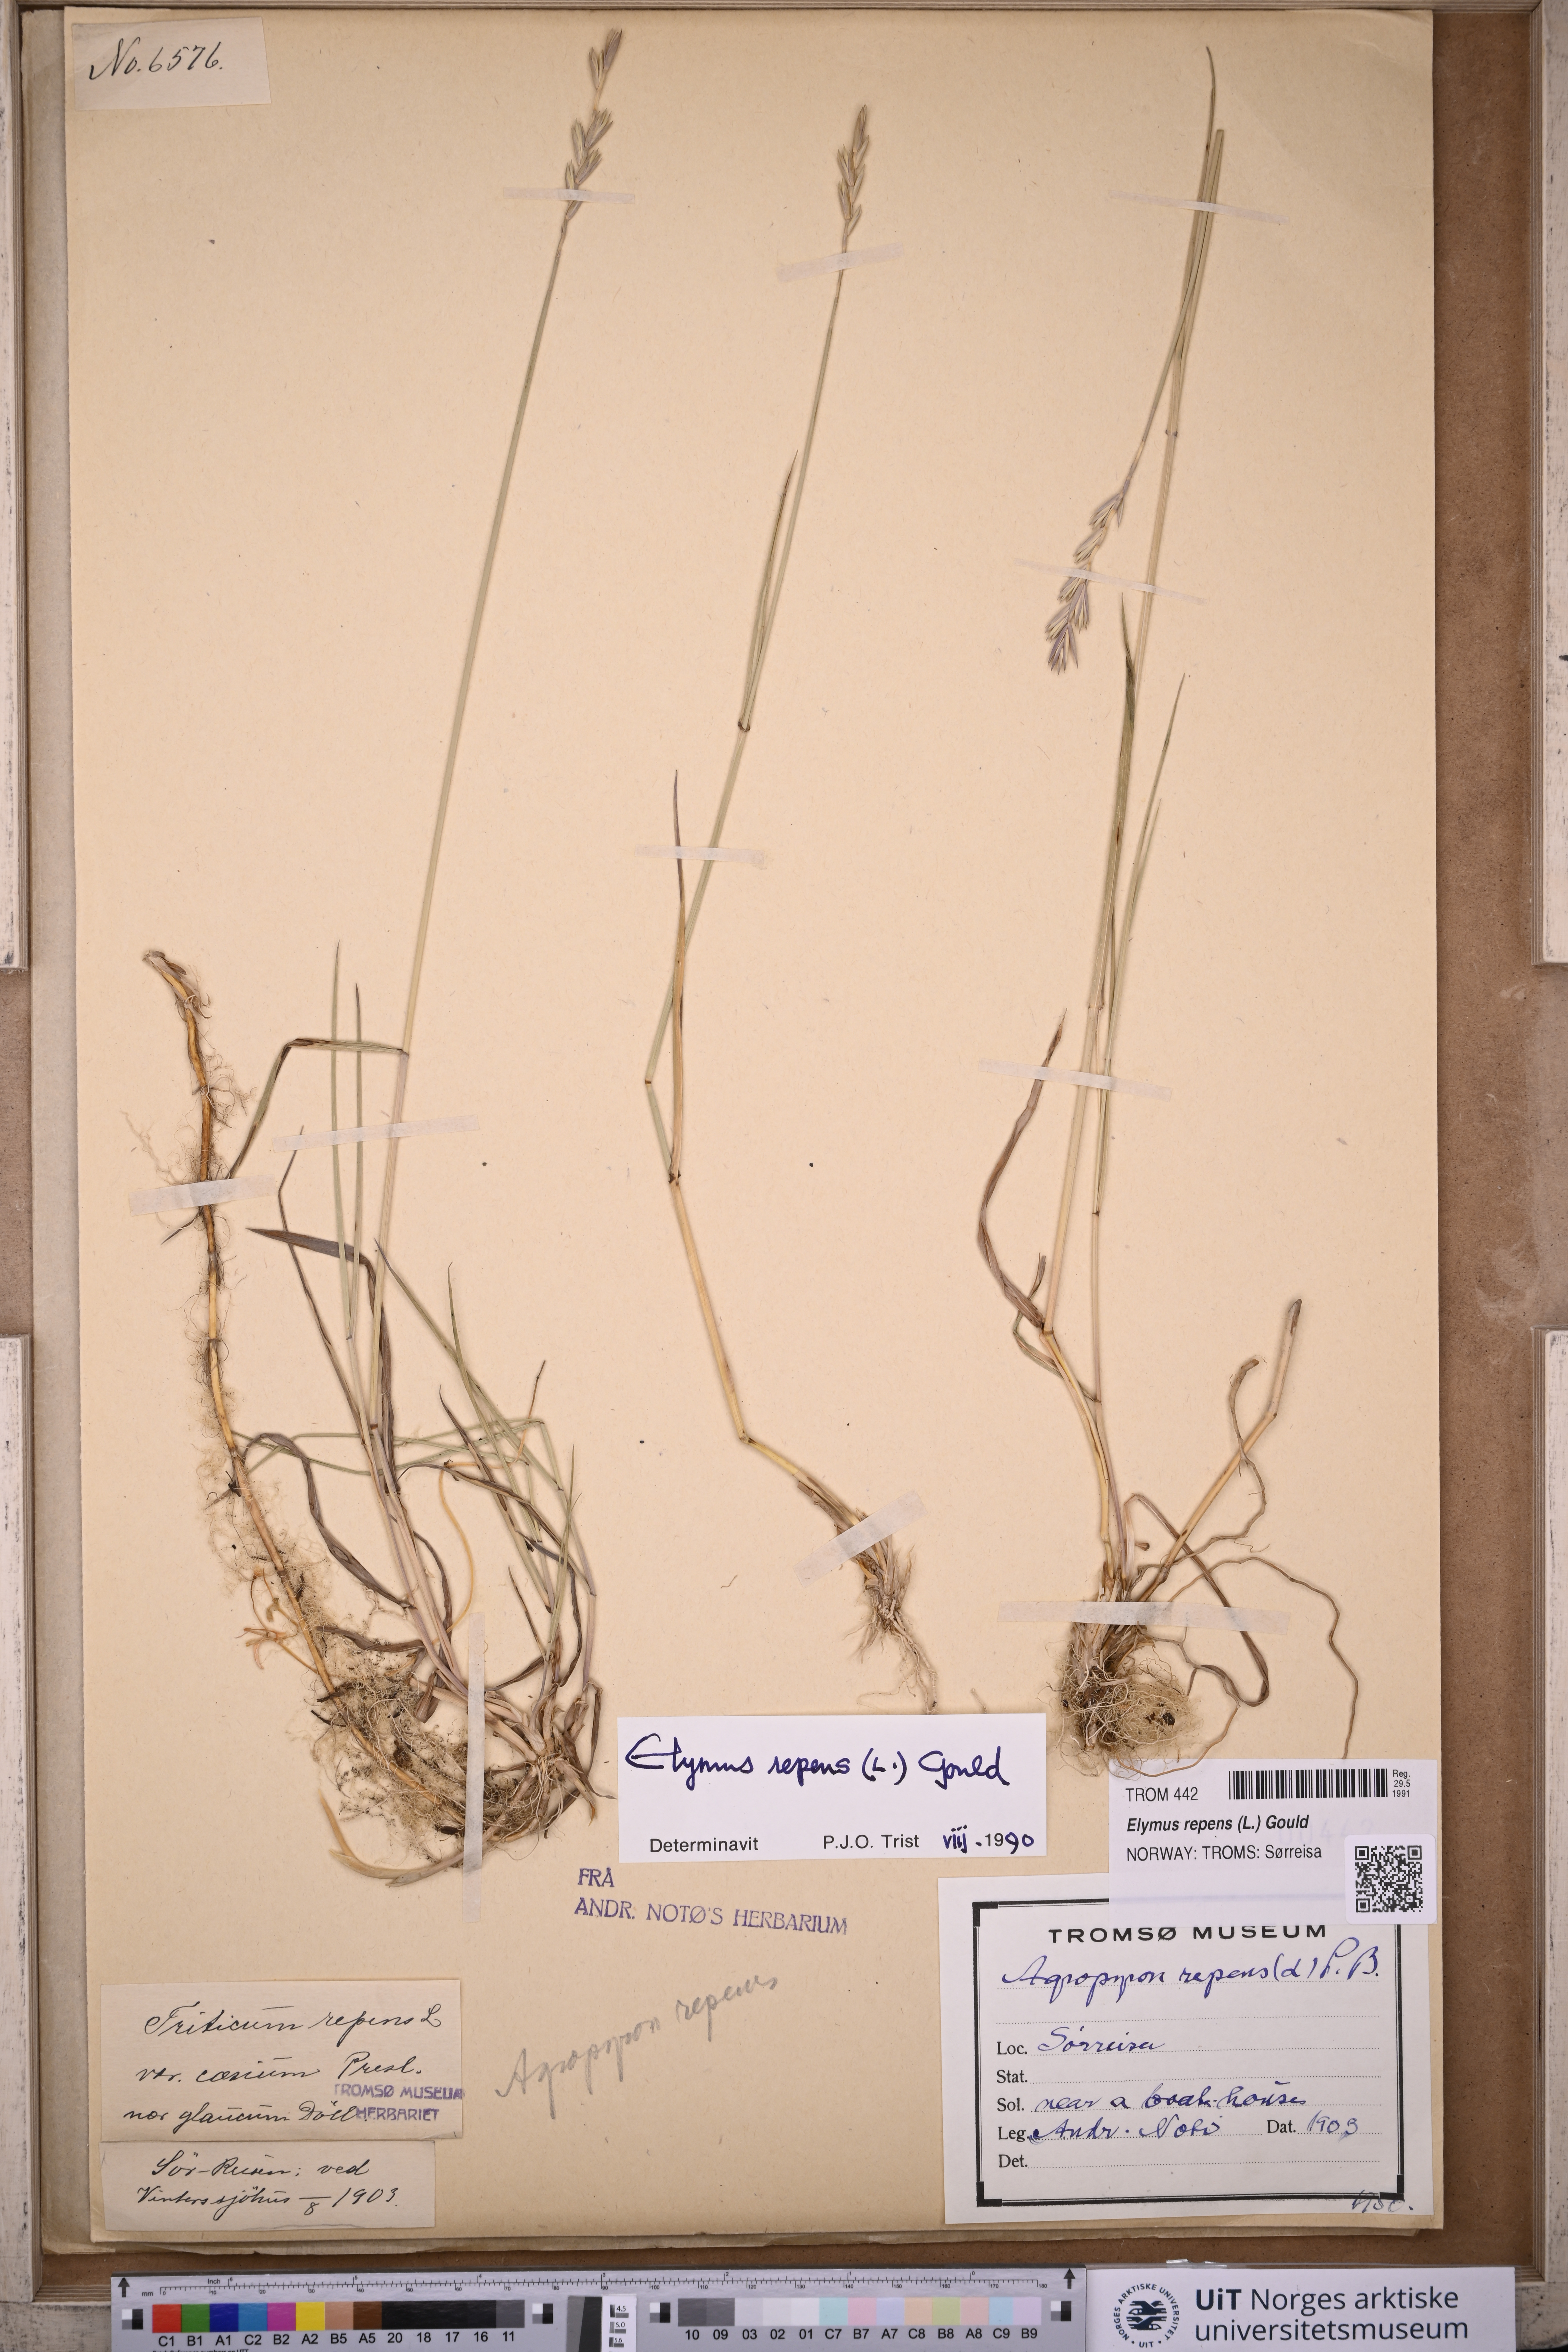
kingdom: Plantae
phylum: Tracheophyta
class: Liliopsida
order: Poales
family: Poaceae
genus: Elymus
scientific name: Elymus repens
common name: Quackgrass
